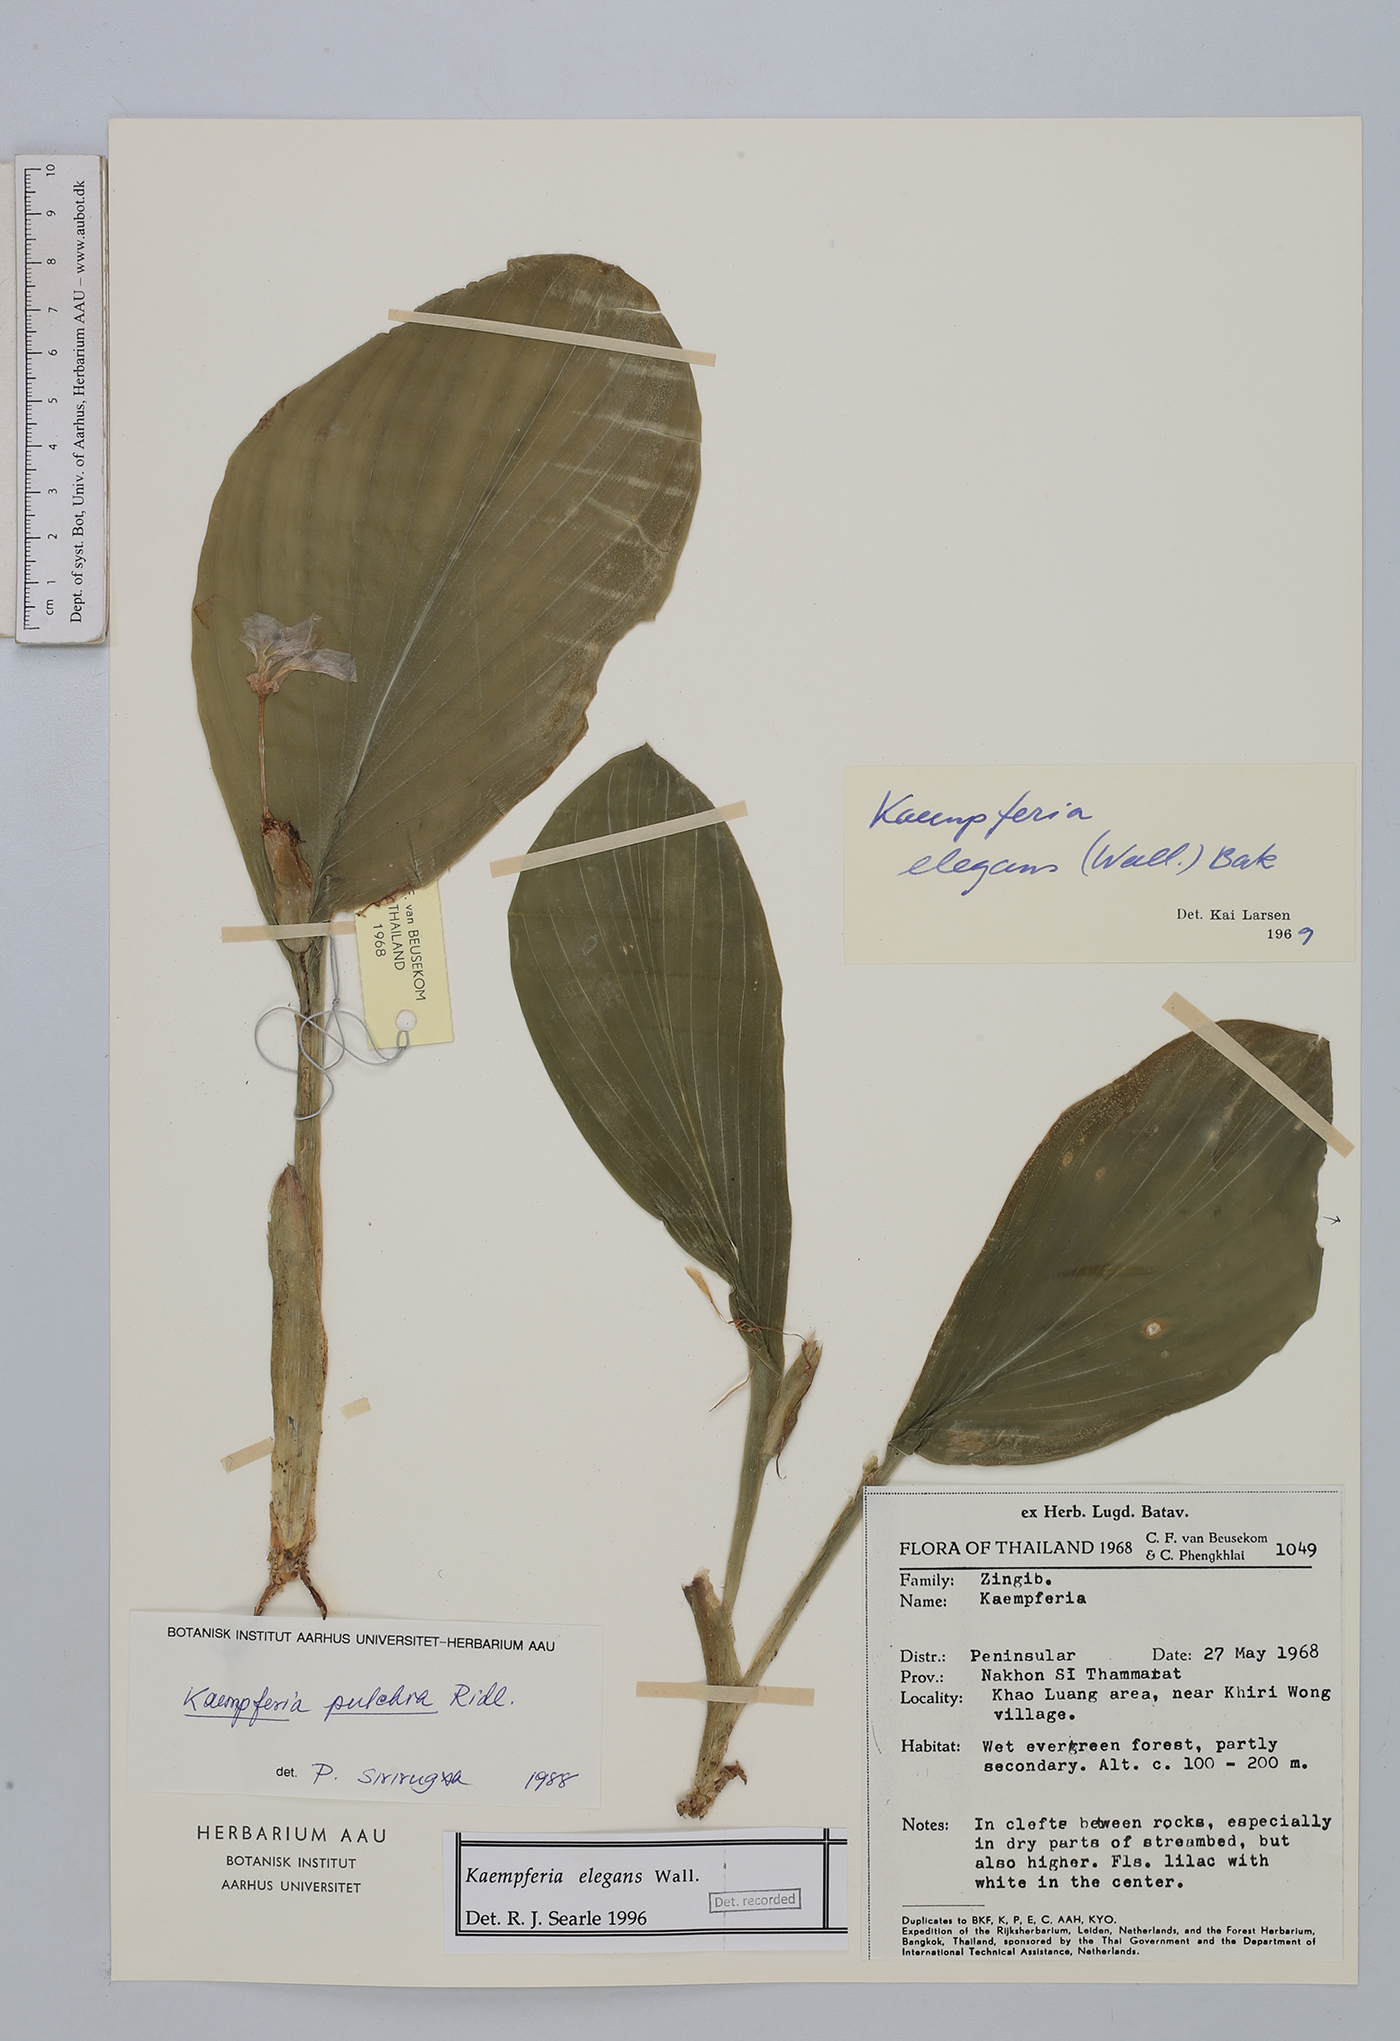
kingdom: Plantae
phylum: Tracheophyta
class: Liliopsida
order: Zingiberales
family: Zingiberaceae
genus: Kaempferia
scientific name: Kaempferia elegans
